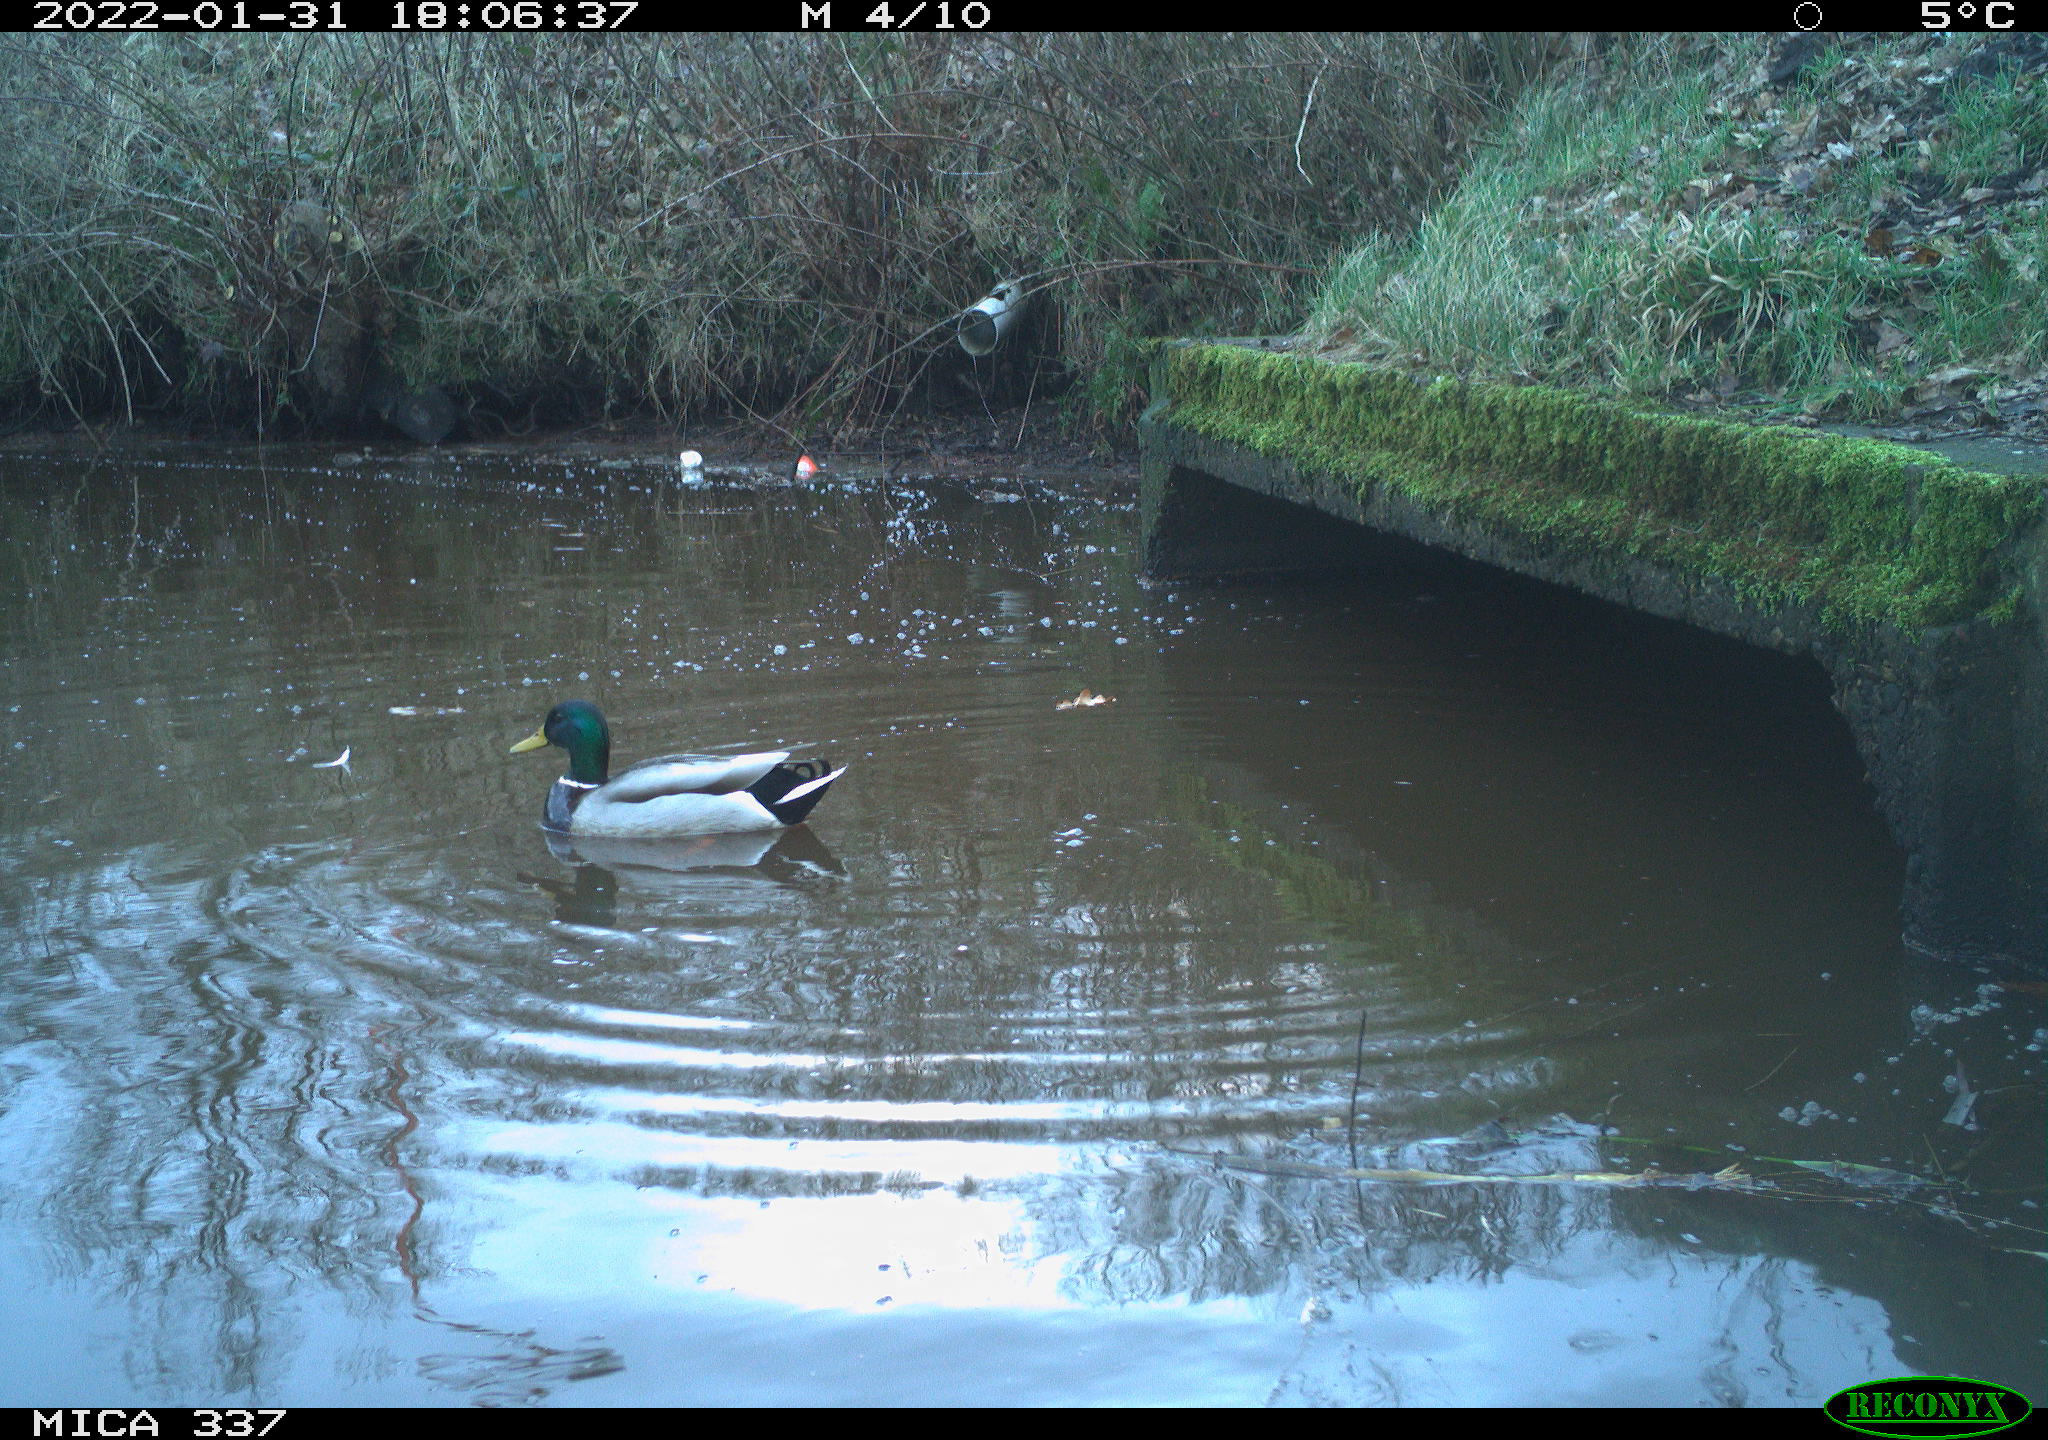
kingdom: Animalia
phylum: Chordata
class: Aves
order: Anseriformes
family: Anatidae
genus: Anas
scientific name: Anas platyrhynchos
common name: Mallard
